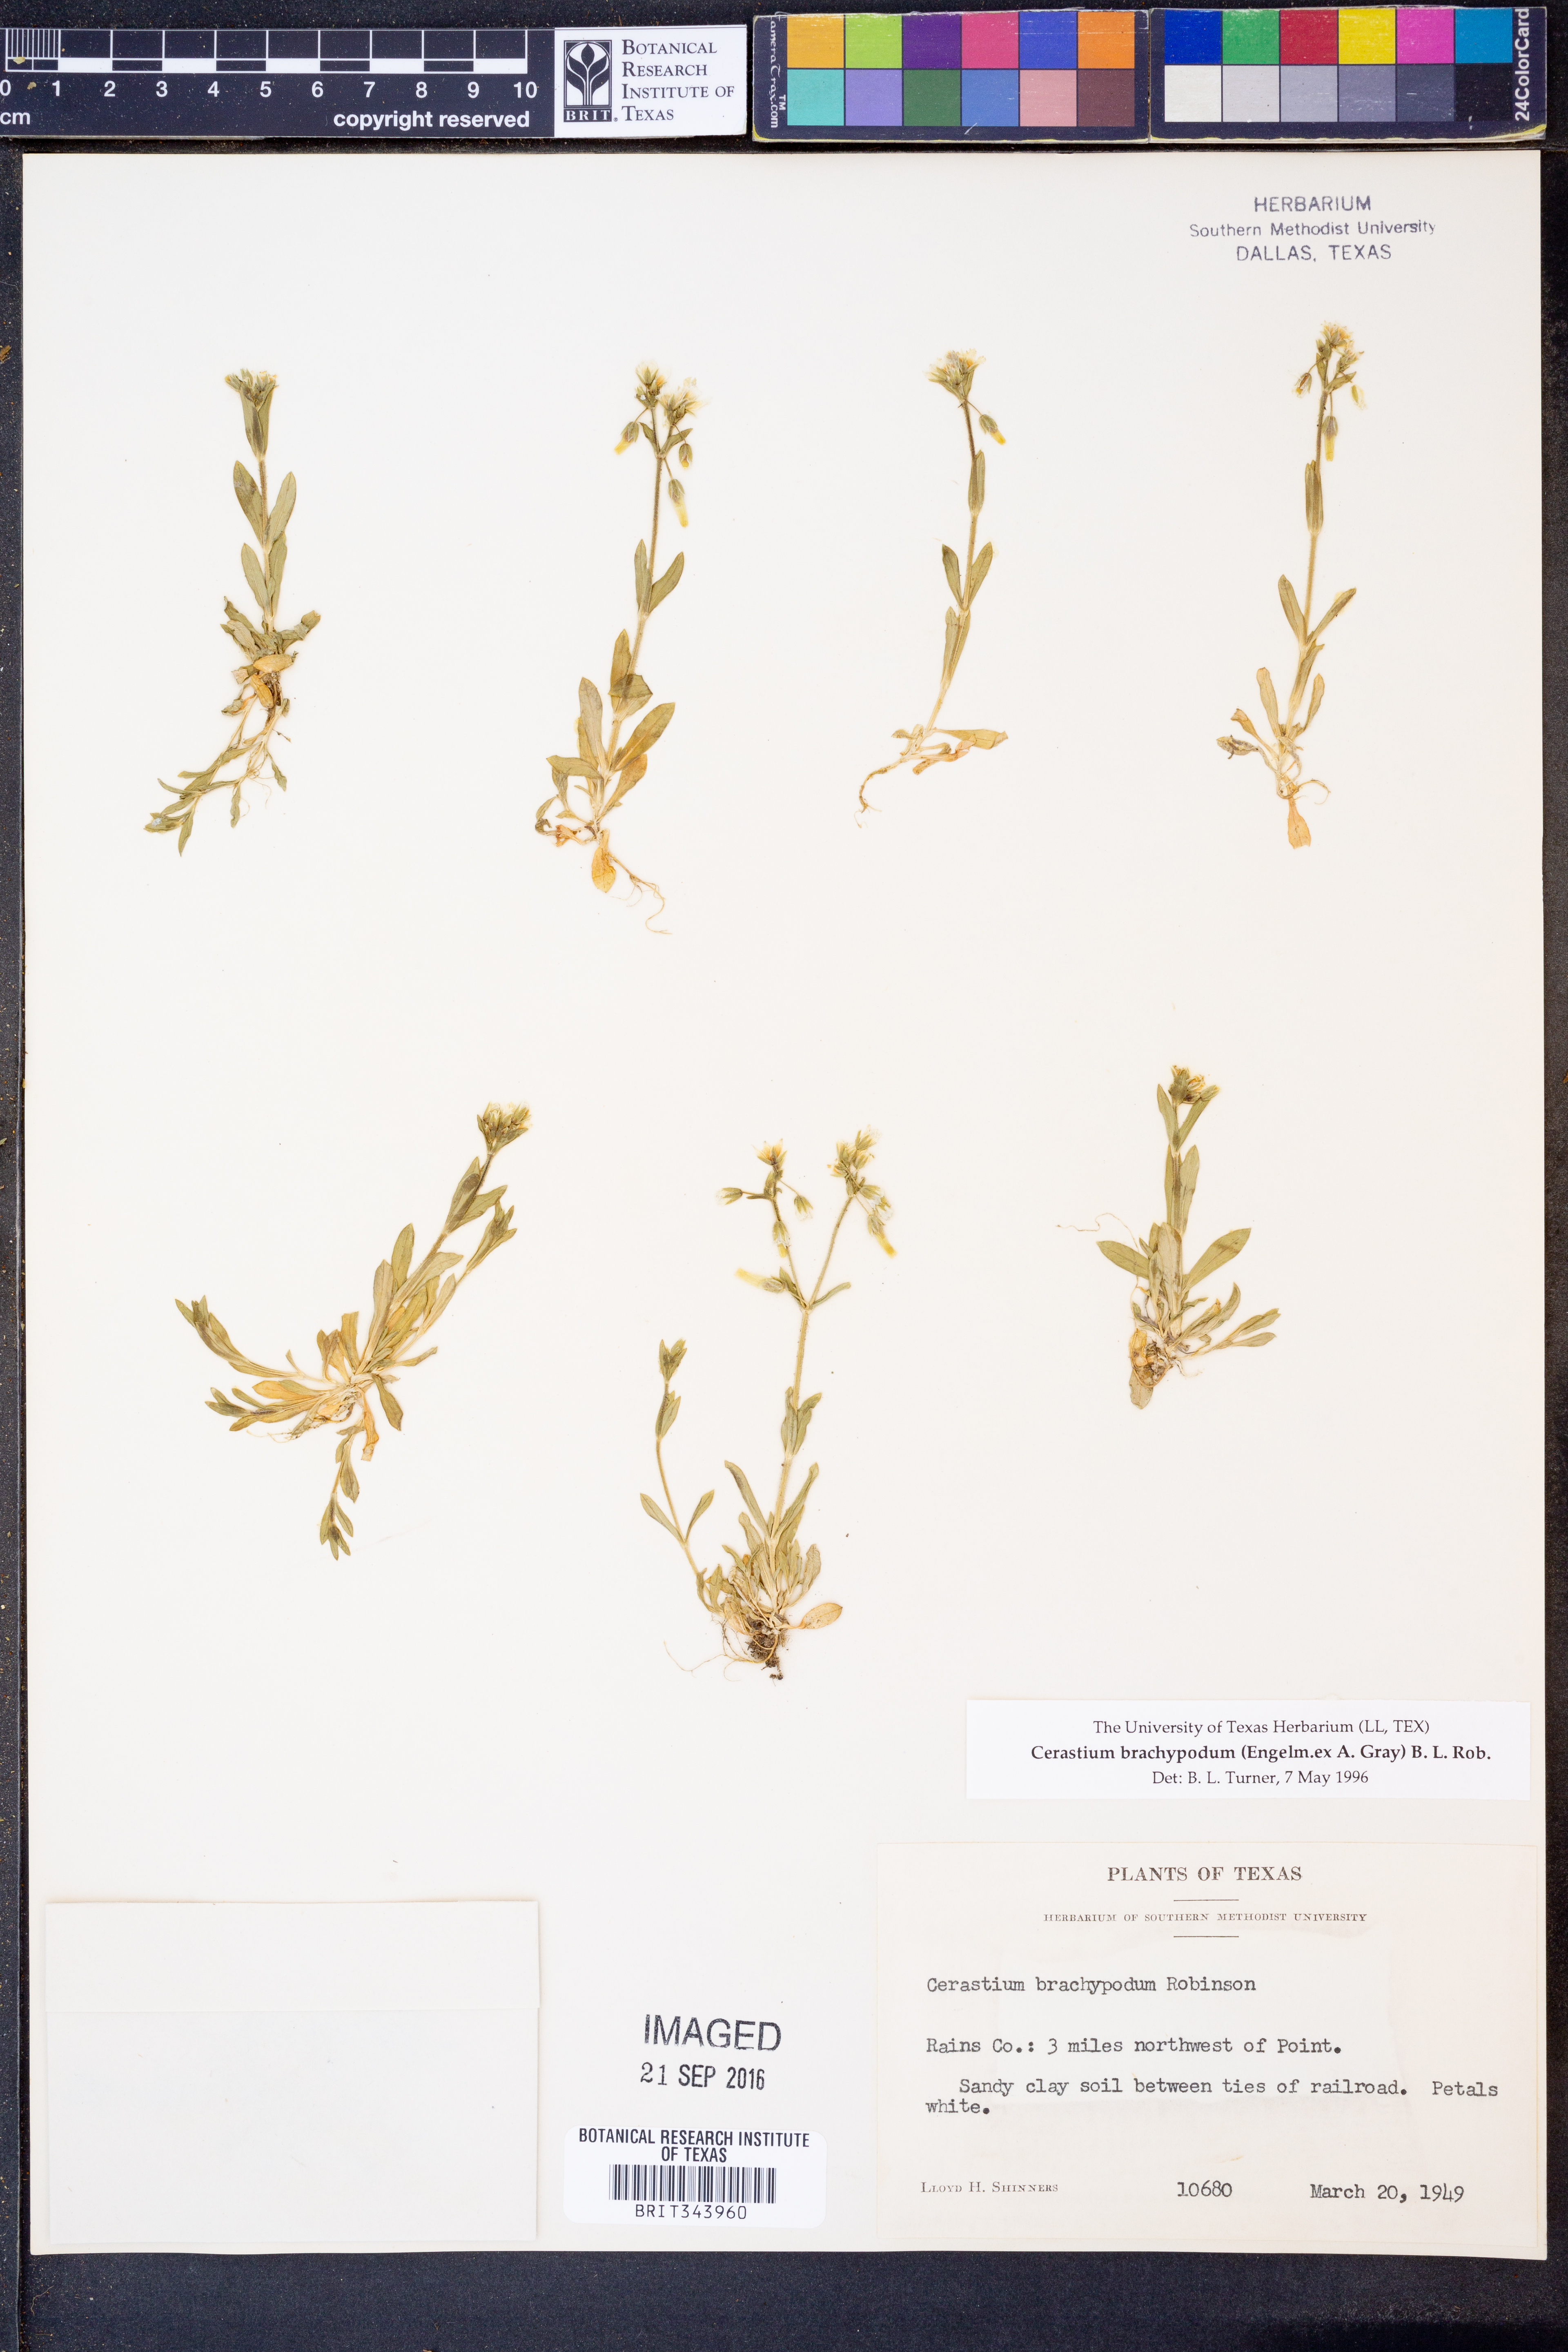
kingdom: Plantae
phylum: Tracheophyta
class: Magnoliopsida
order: Caryophyllales
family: Caryophyllaceae
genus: Cerastium
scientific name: Cerastium brachypodum
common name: Short-pedicelled nodding chickweed
